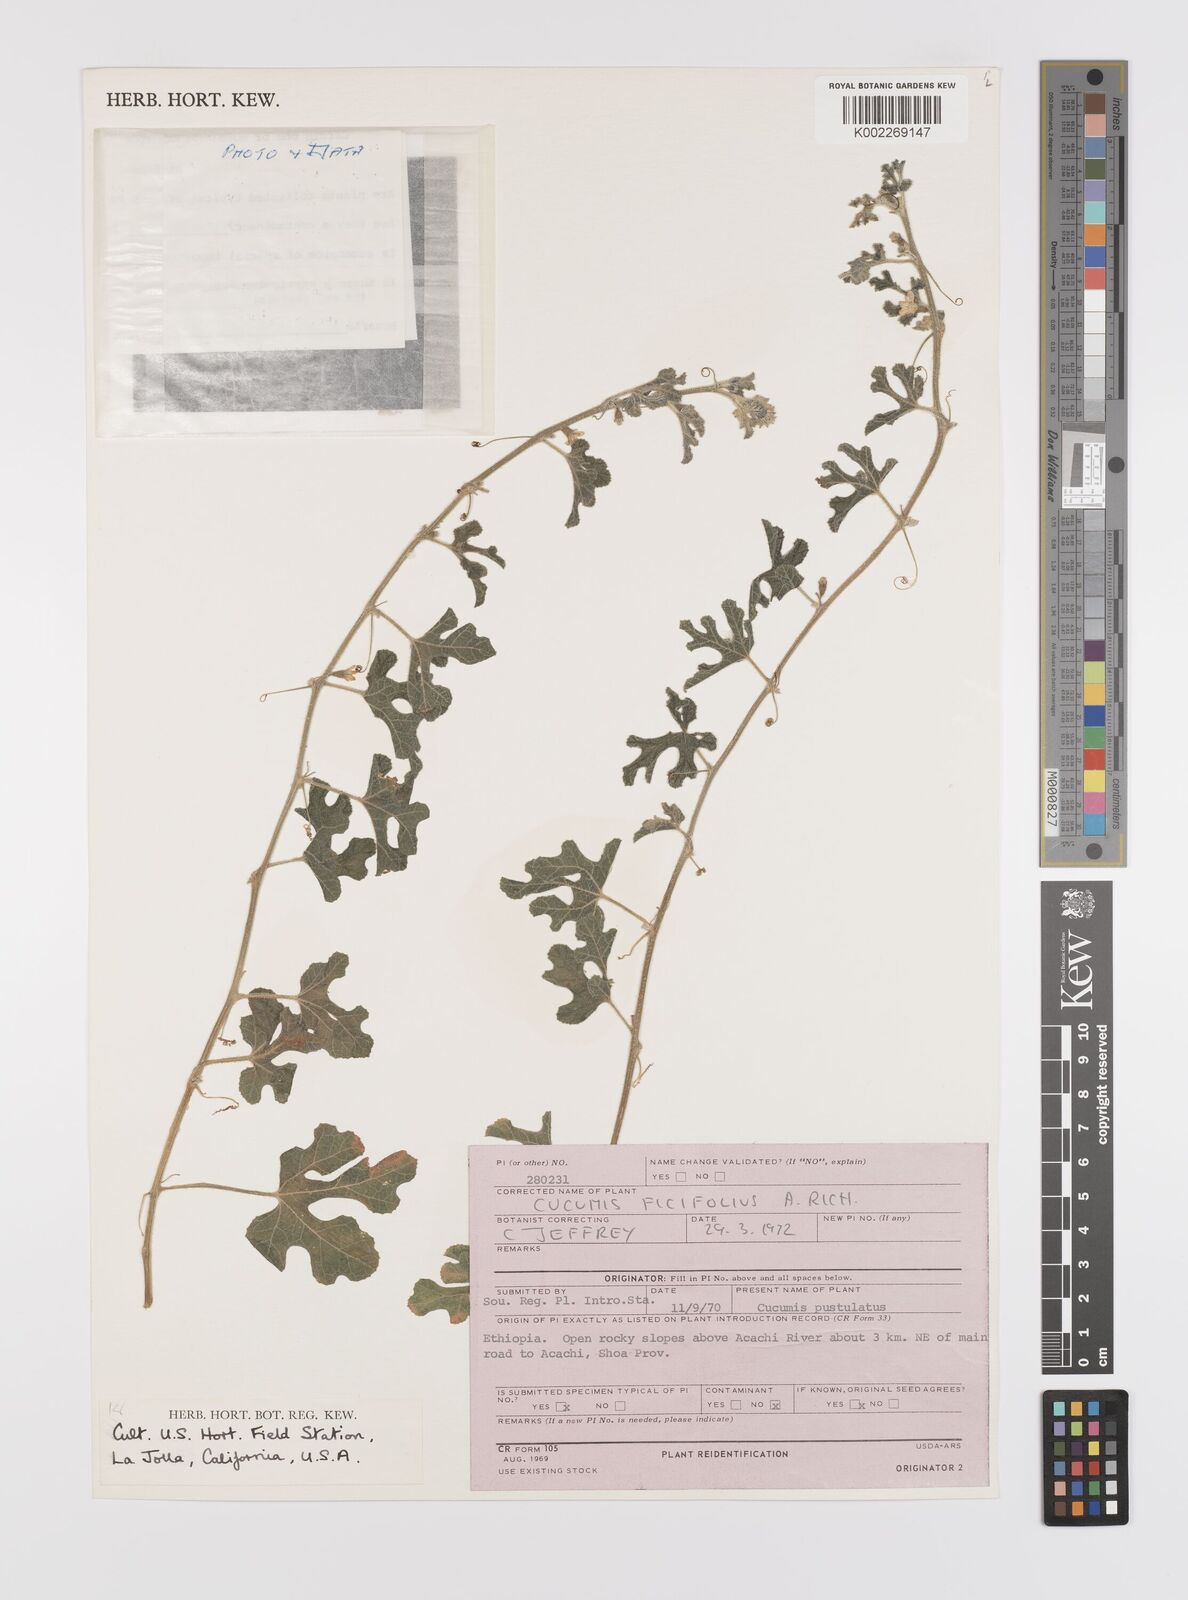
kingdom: Plantae
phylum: Tracheophyta
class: Magnoliopsida
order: Cucurbitales
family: Cucurbitaceae
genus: Cucumis
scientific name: Cucumis ficifolius
